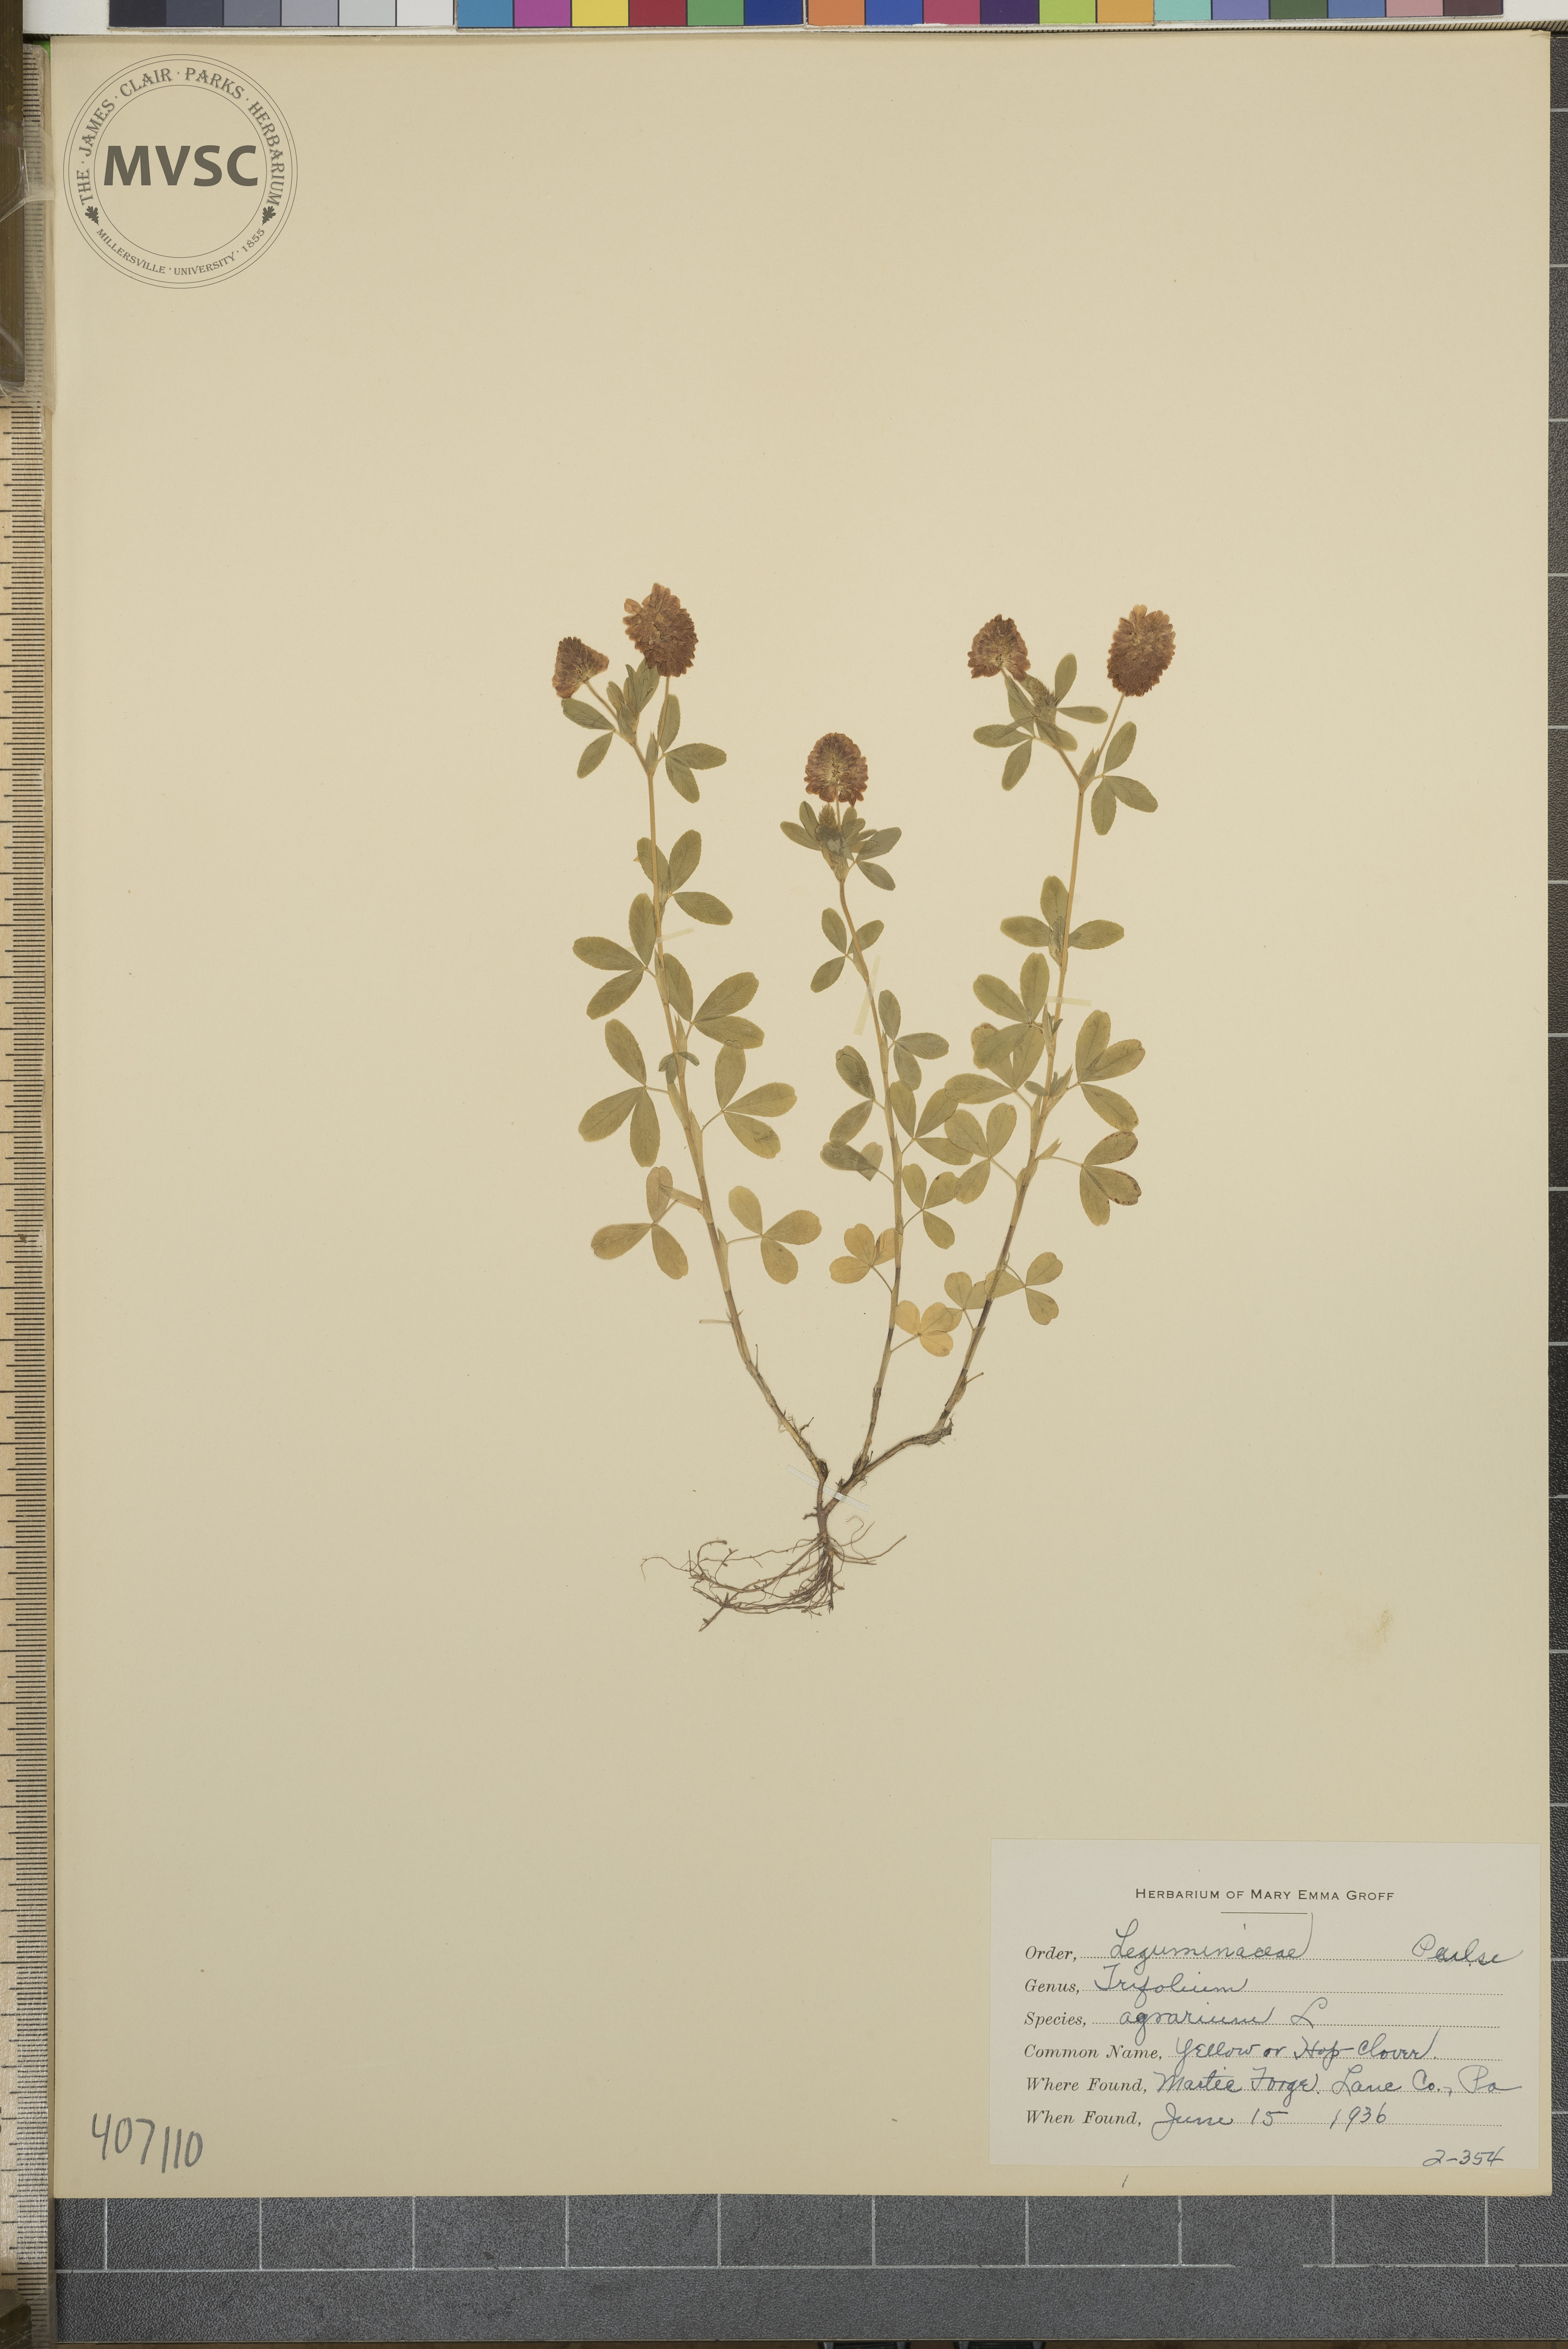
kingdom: Plantae
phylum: Tracheophyta
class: Magnoliopsida
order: Fabales
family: Fabaceae
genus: Trifolium
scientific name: Trifolium aureum
